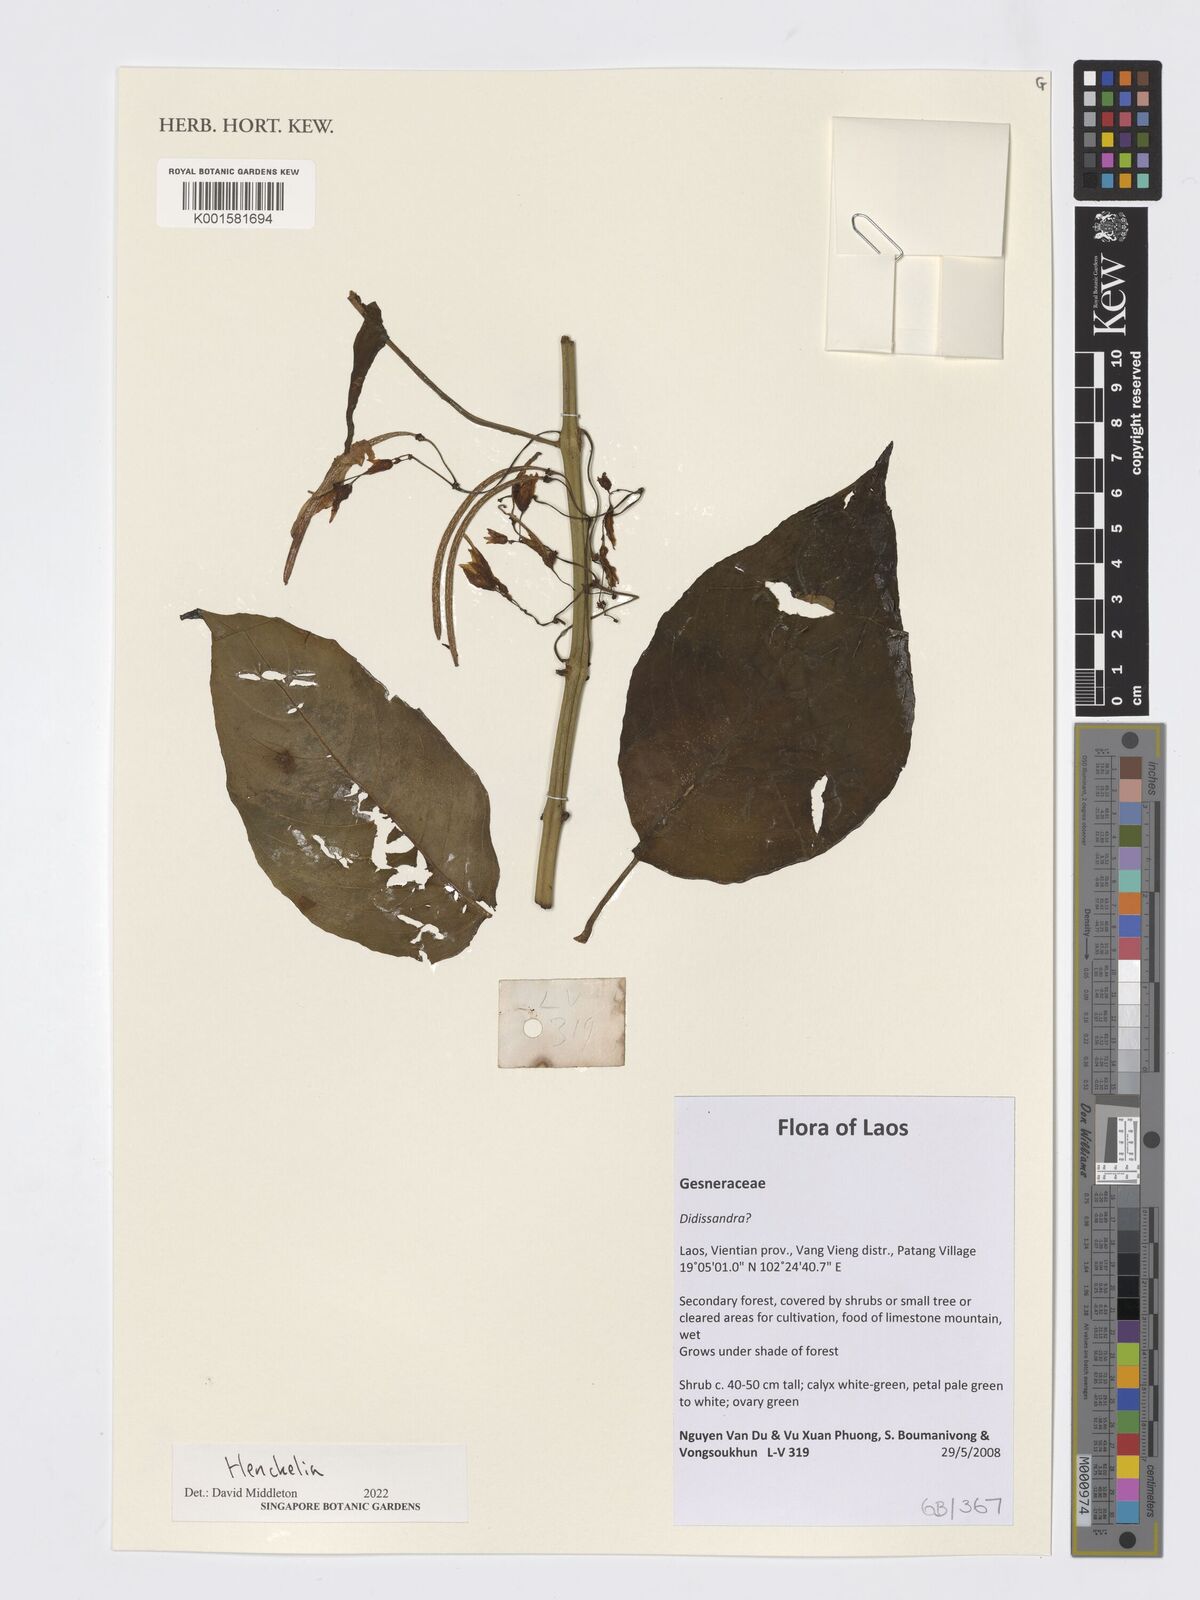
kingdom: Plantae
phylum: Tracheophyta
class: Magnoliopsida
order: Lamiales
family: Gesneriaceae
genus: Henckelia
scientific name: Henckelia
